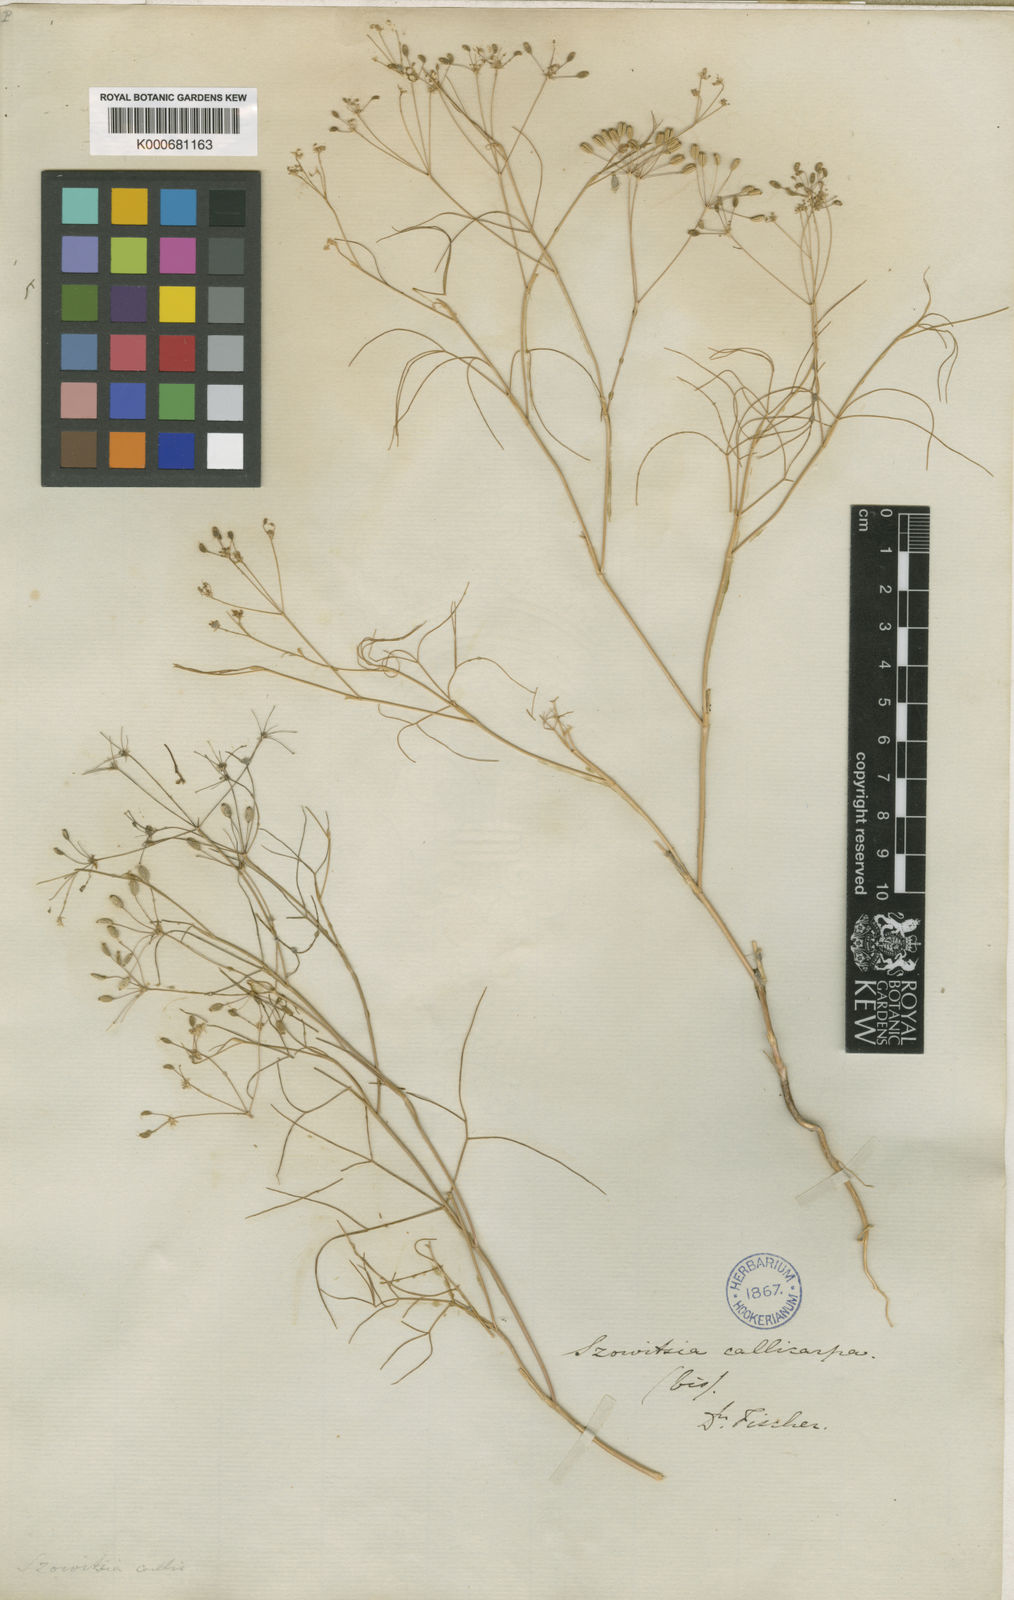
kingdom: Plantae
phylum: Tracheophyta
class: Magnoliopsida
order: Apiales
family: Apiaceae
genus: Szovitsia
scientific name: Szovitsia callicarpa
